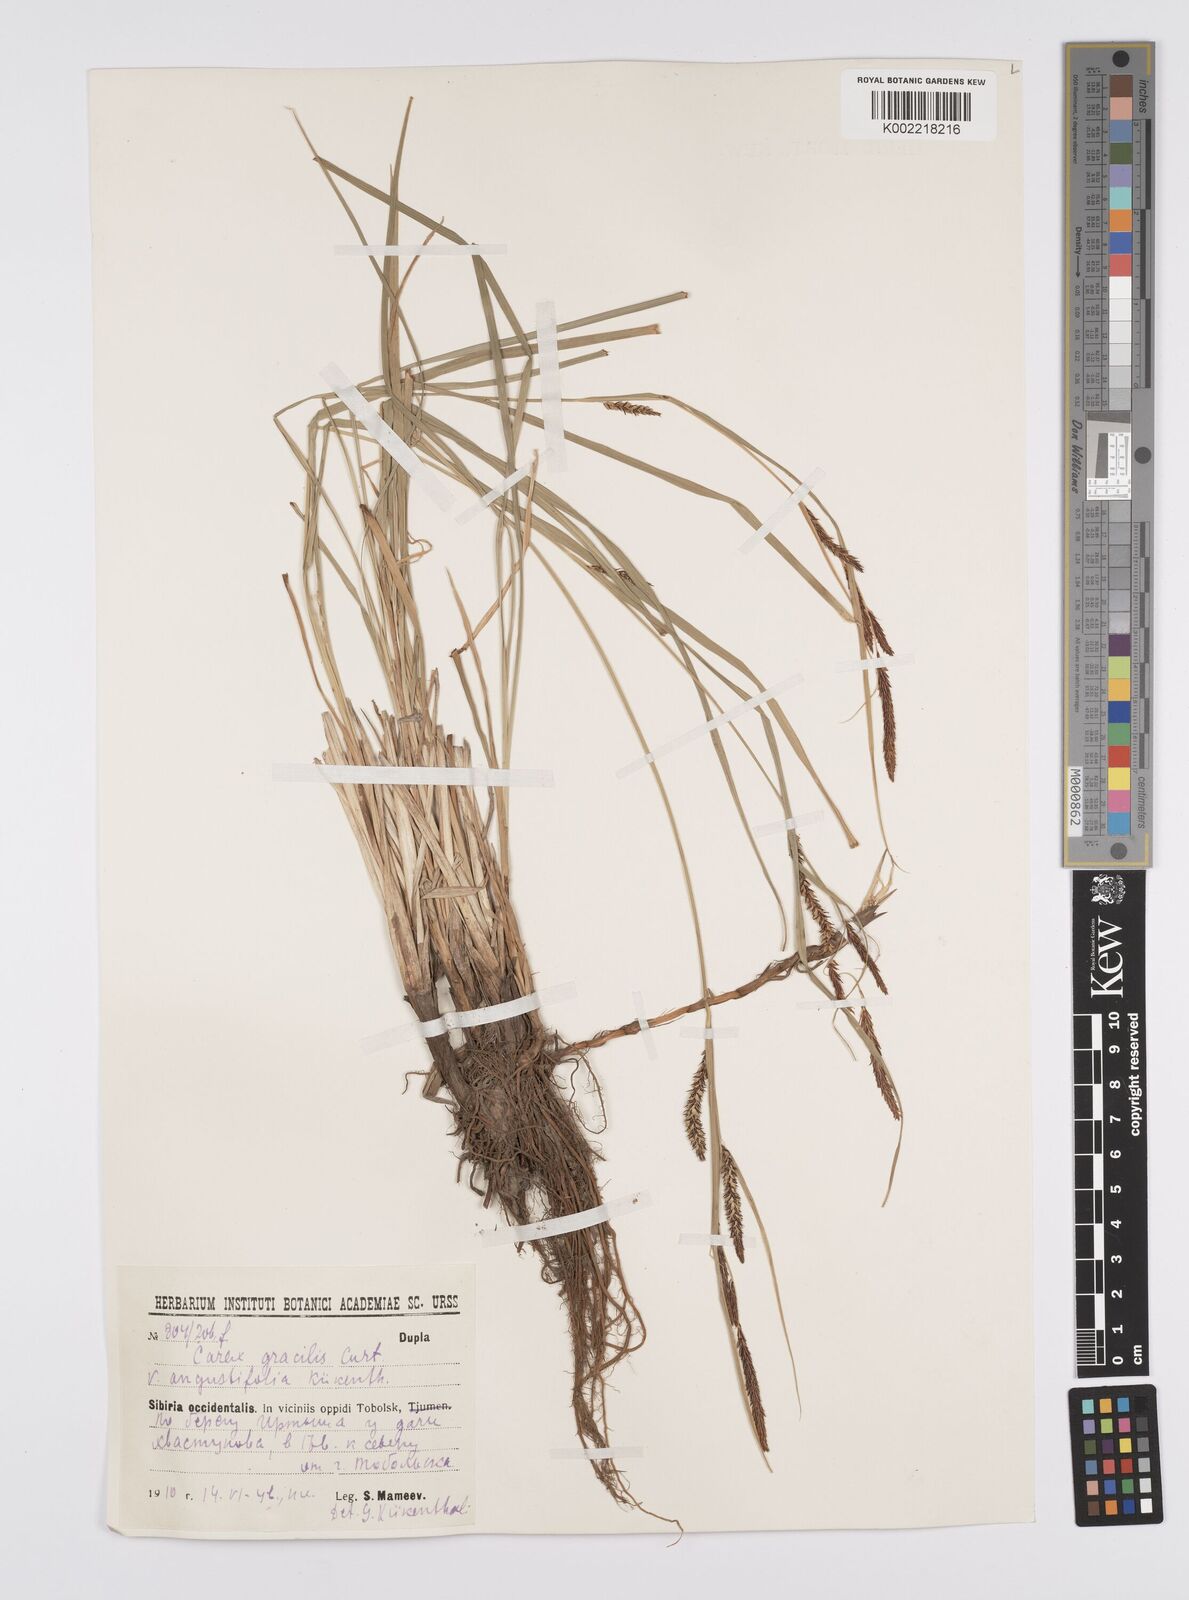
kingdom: Plantae
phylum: Tracheophyta
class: Liliopsida
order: Poales
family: Cyperaceae
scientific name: Cyperaceae
